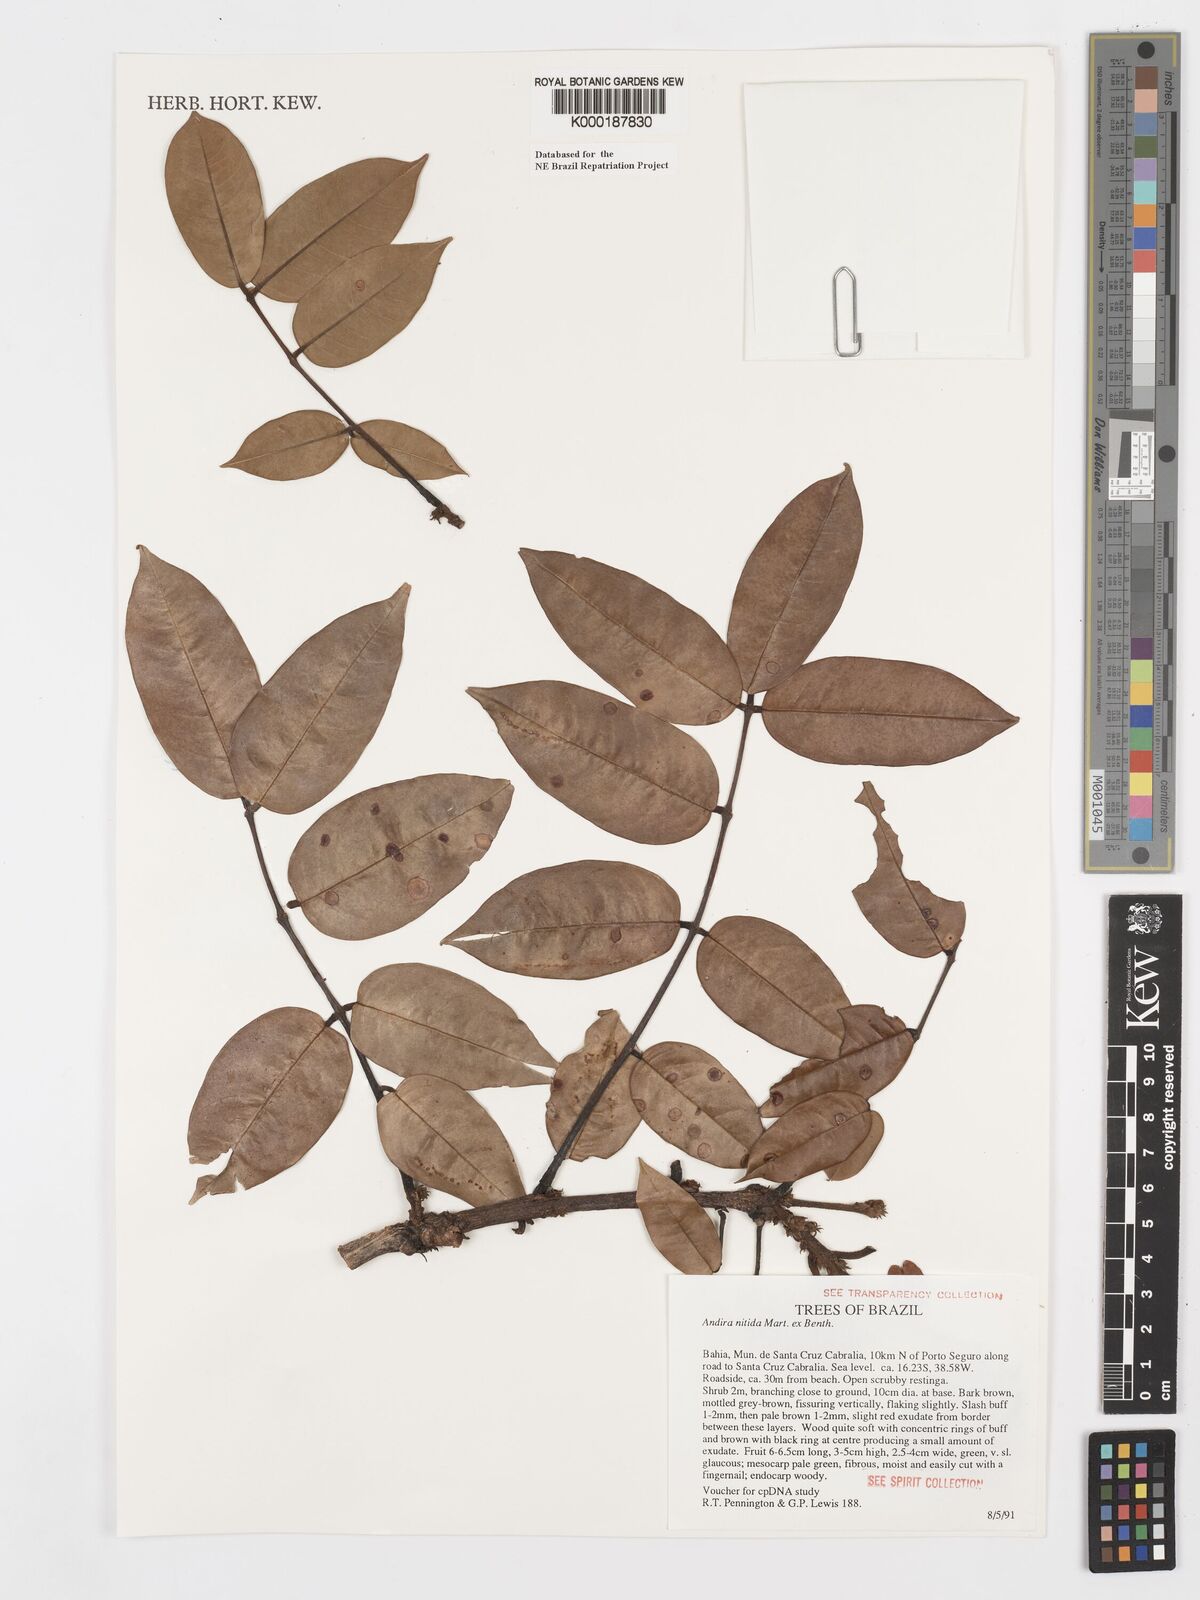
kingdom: Plantae
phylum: Tracheophyta
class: Magnoliopsida
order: Fabales
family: Fabaceae
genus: Andira
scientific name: Andira nitida
